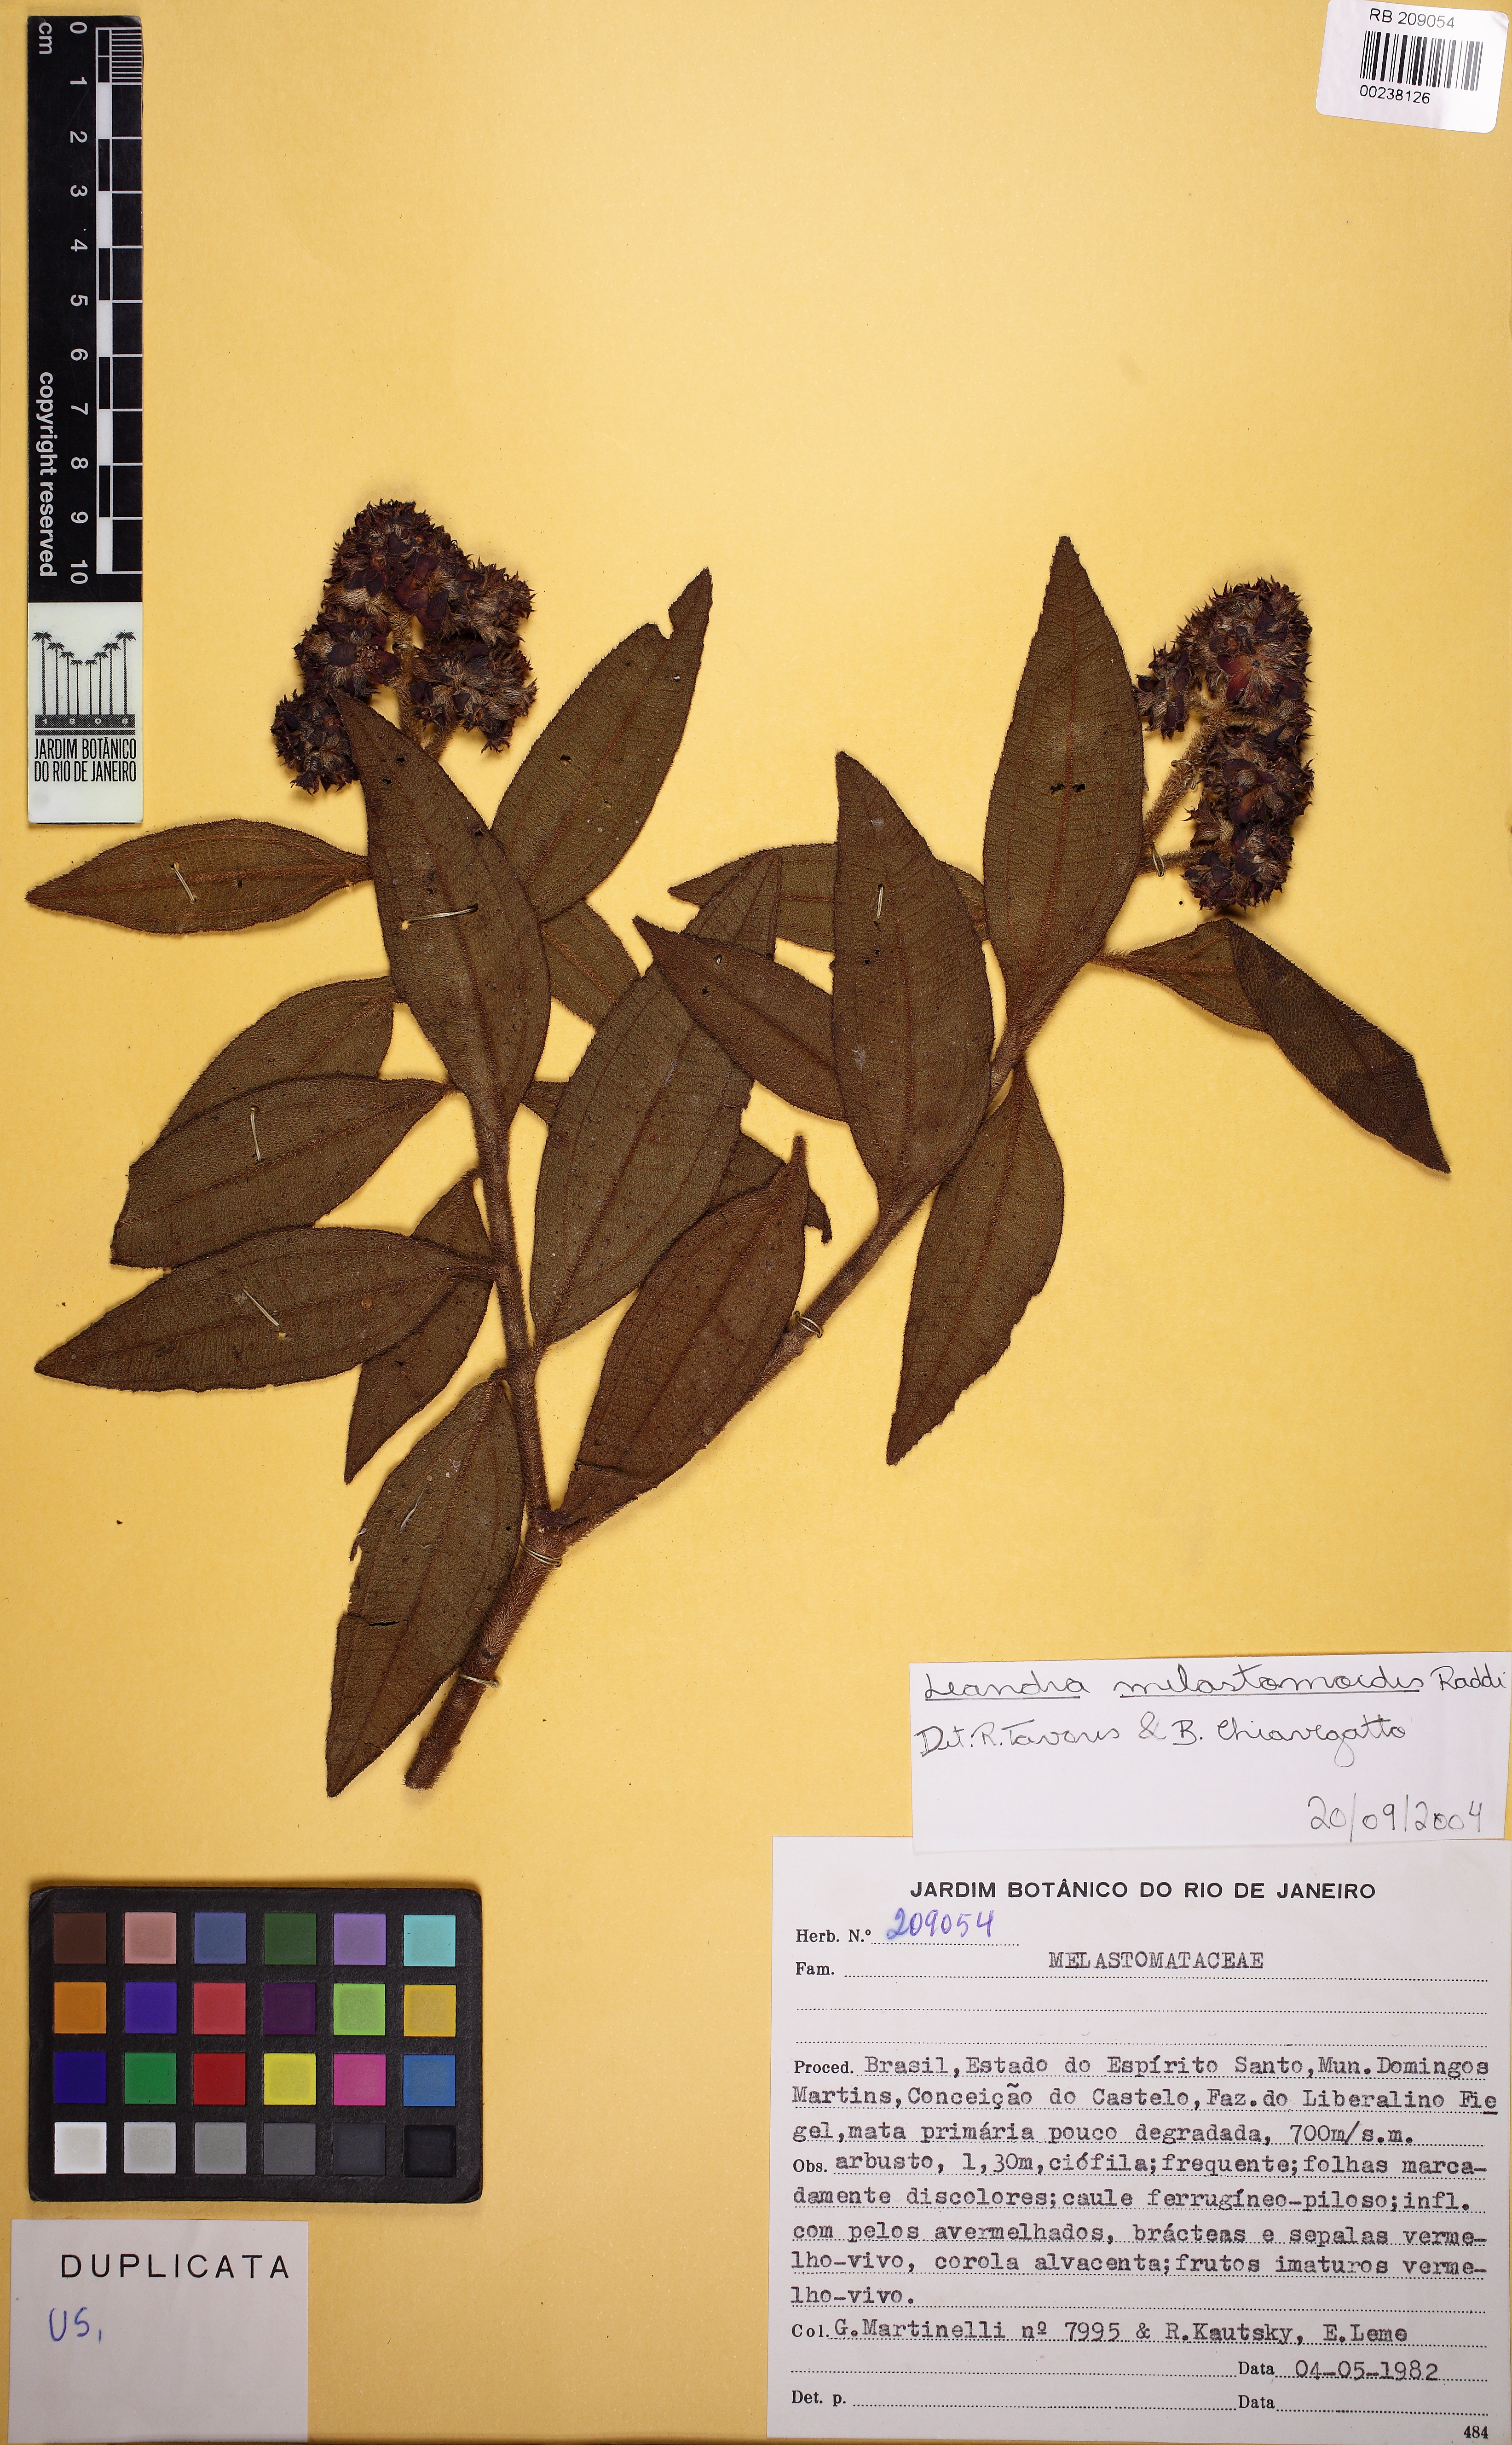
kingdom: Plantae
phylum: Tracheophyta
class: Magnoliopsida
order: Myrtales
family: Melastomataceae
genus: Miconia
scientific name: Miconia melastomoides
